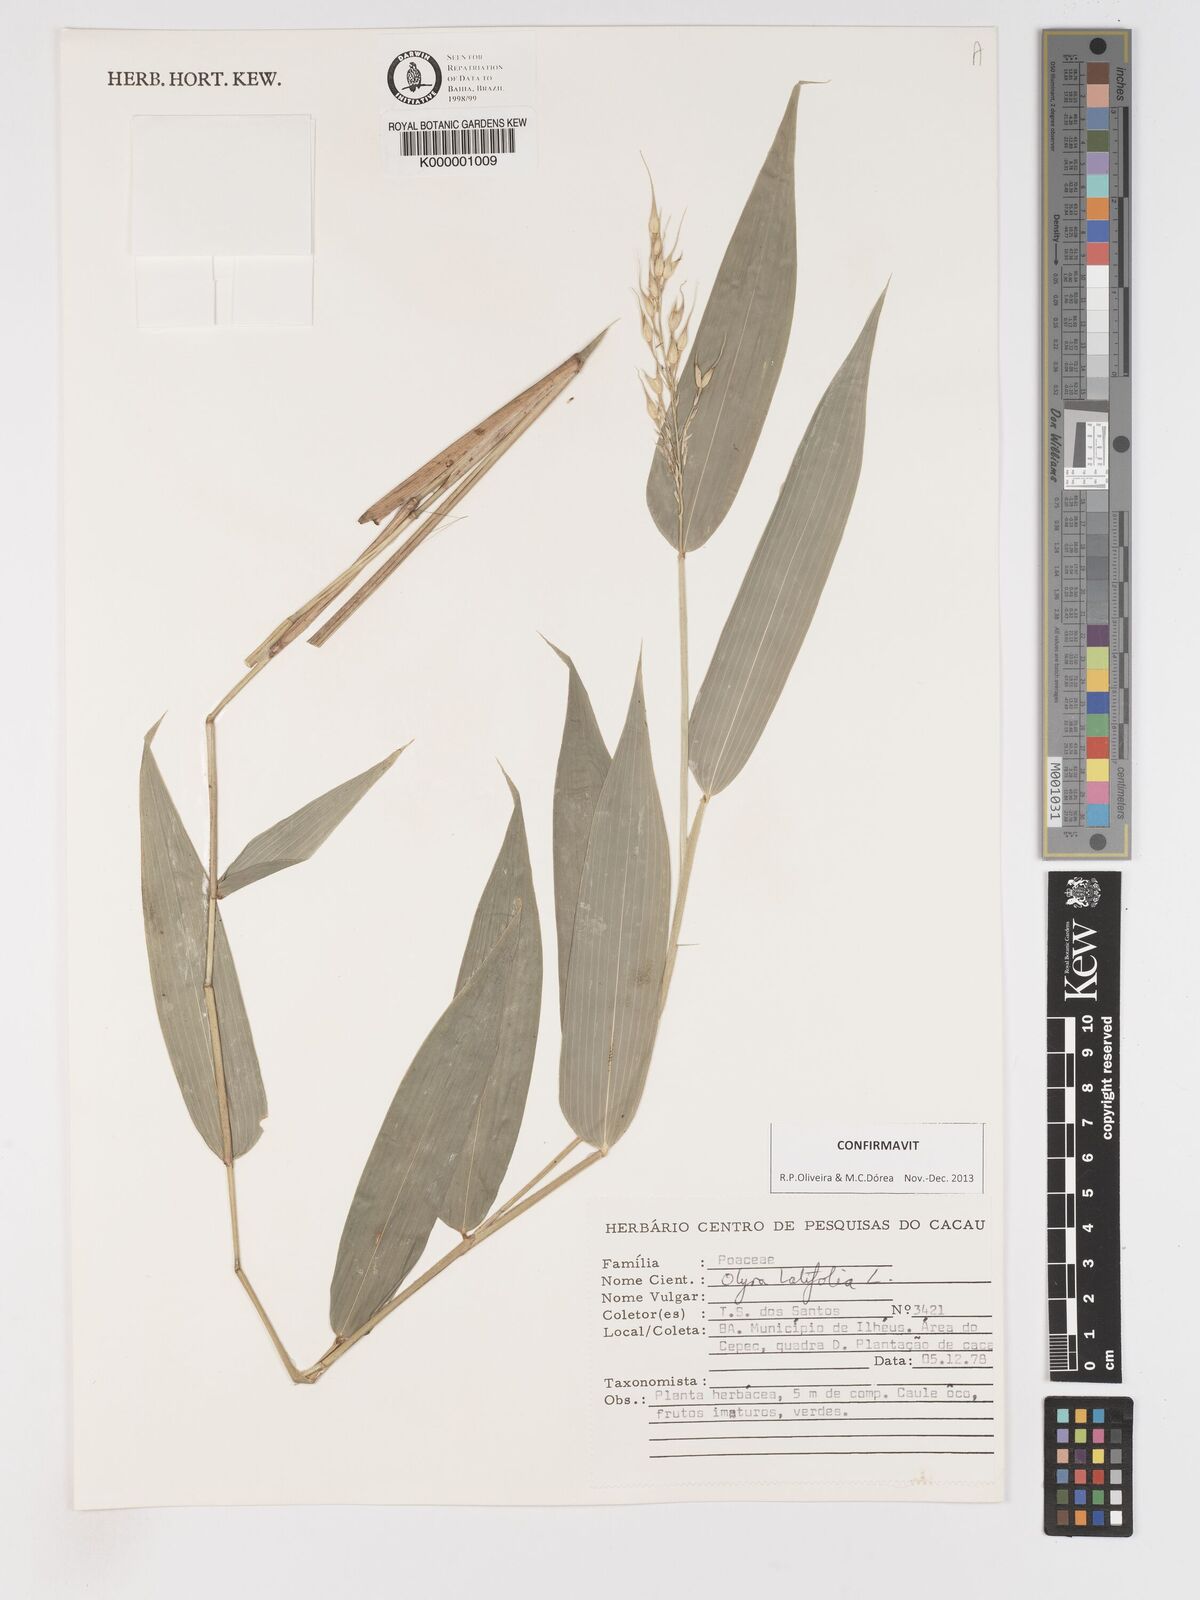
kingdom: Plantae
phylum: Tracheophyta
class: Liliopsida
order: Poales
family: Poaceae
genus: Olyra
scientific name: Olyra latifolia
